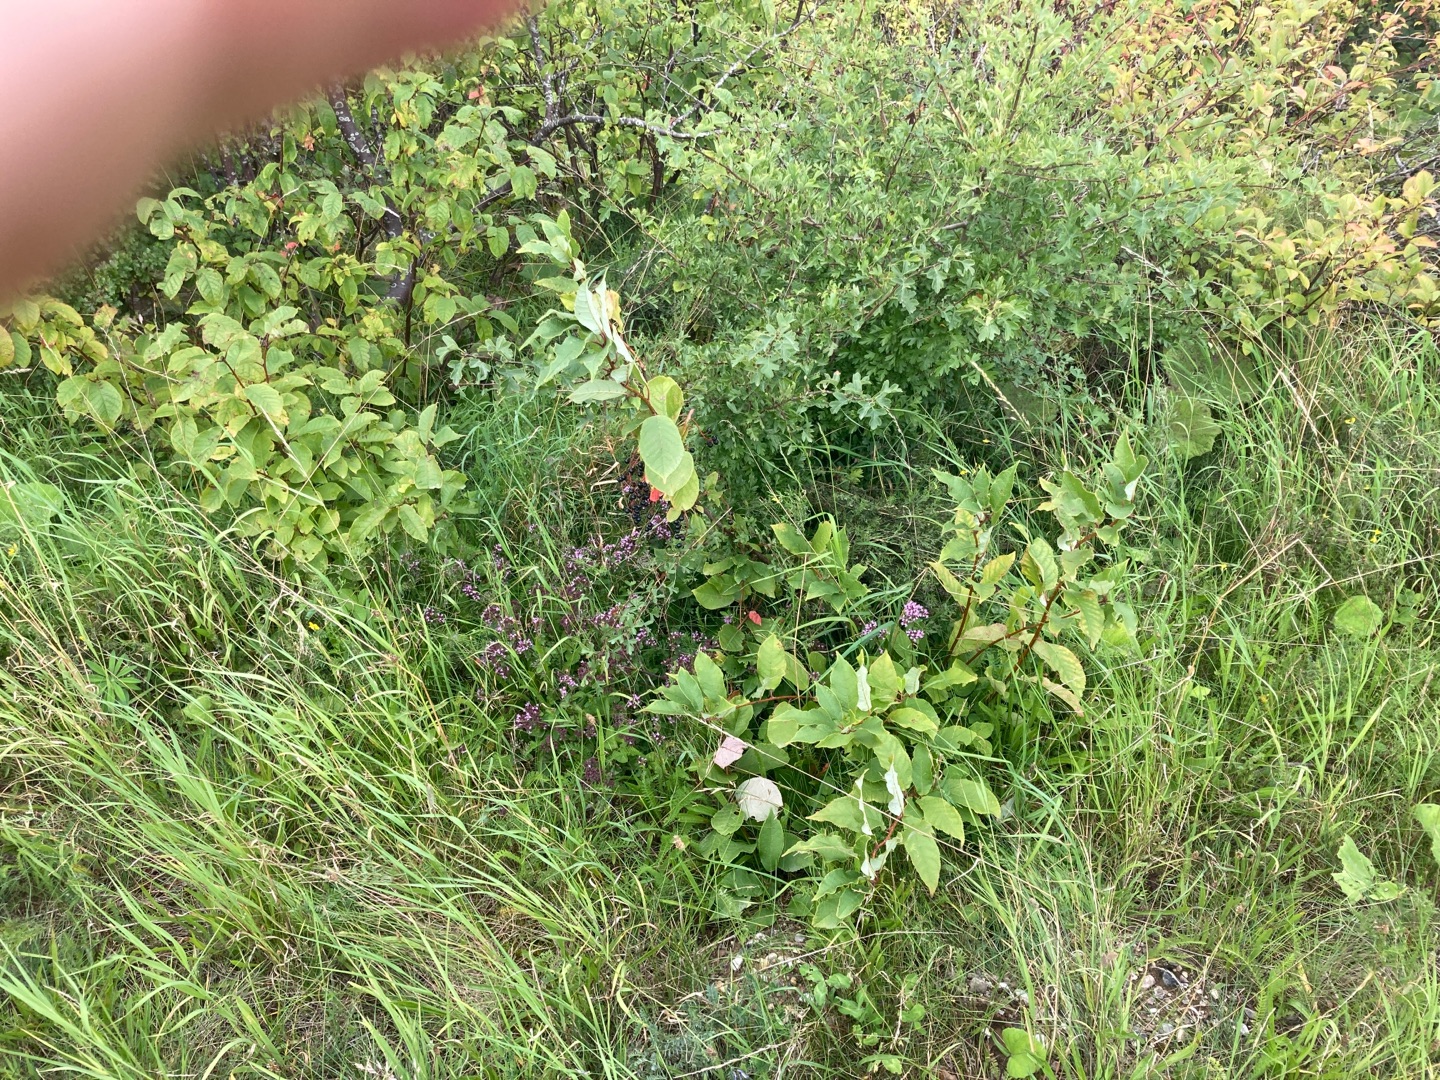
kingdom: Plantae
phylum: Tracheophyta
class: Magnoliopsida
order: Lamiales
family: Lamiaceae
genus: Origanum
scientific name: Origanum vulgare
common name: Merian
